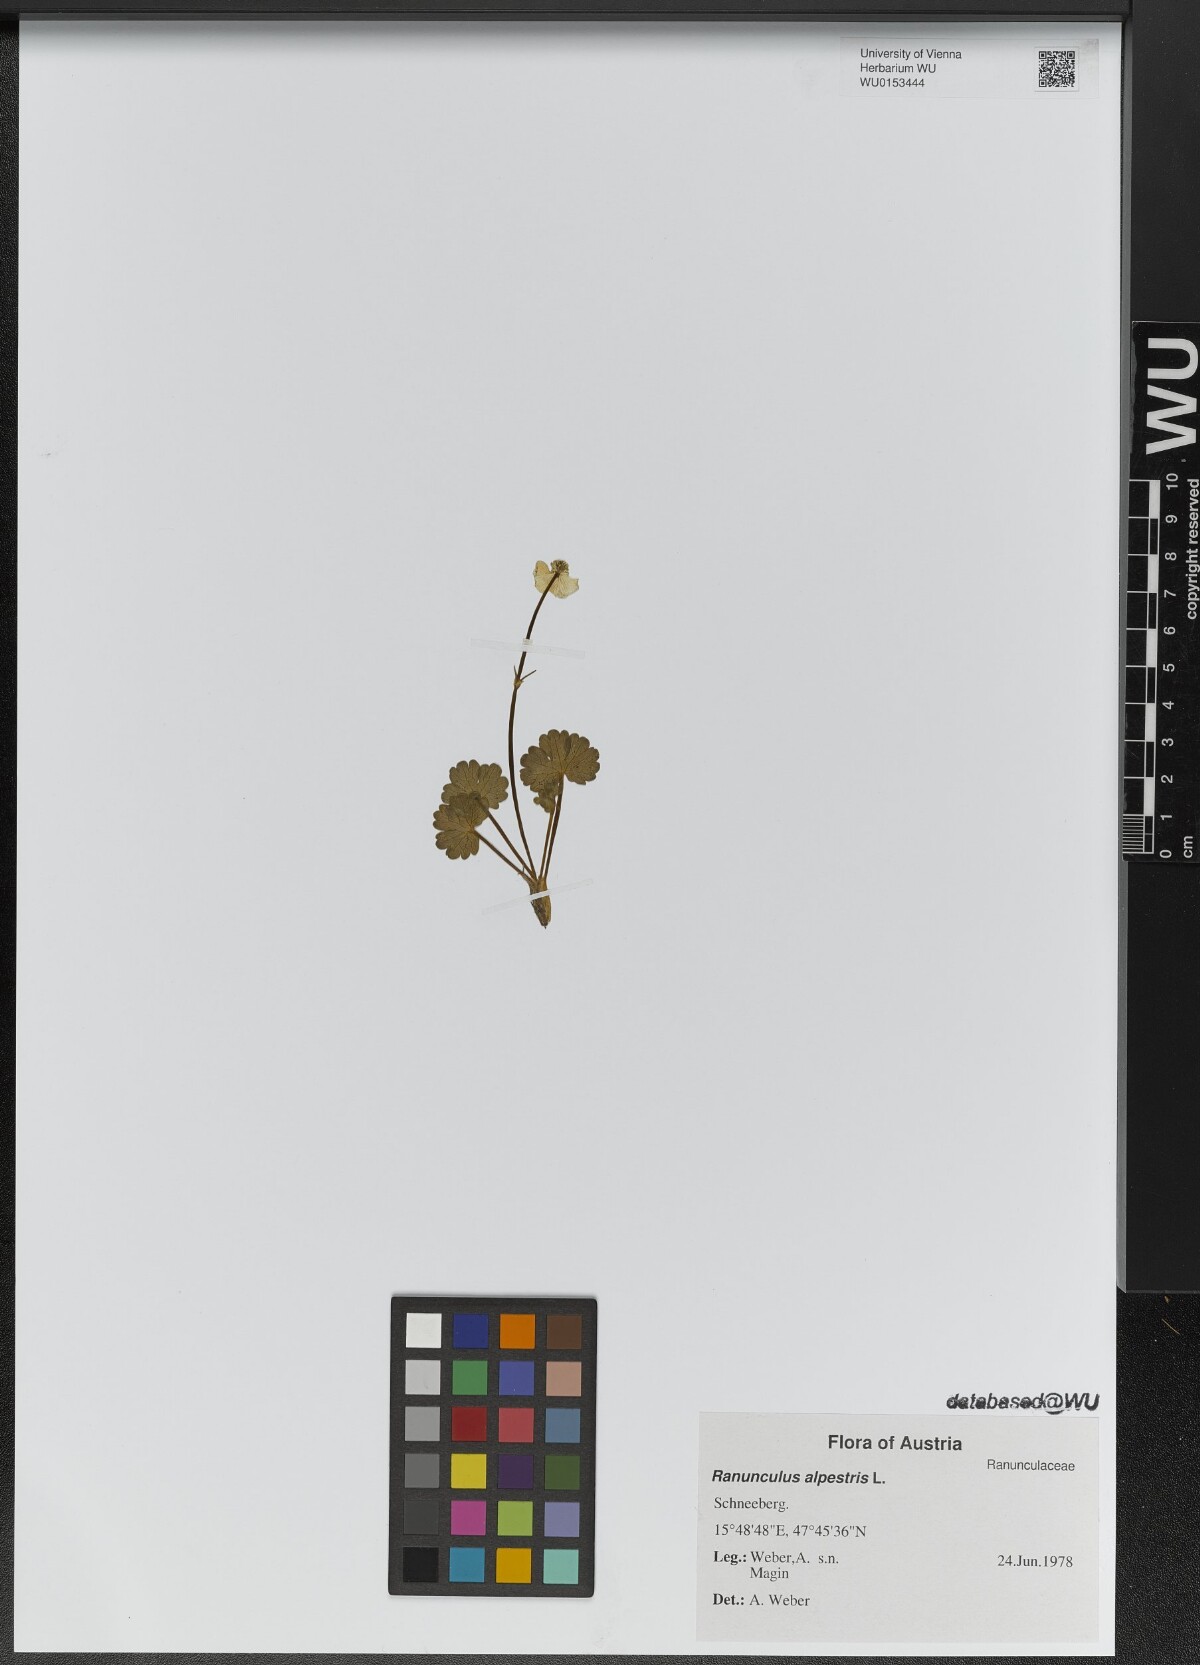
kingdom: Plantae
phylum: Tracheophyta
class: Magnoliopsida
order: Ranunculales
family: Ranunculaceae
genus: Ranunculus
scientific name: Ranunculus alpestris
